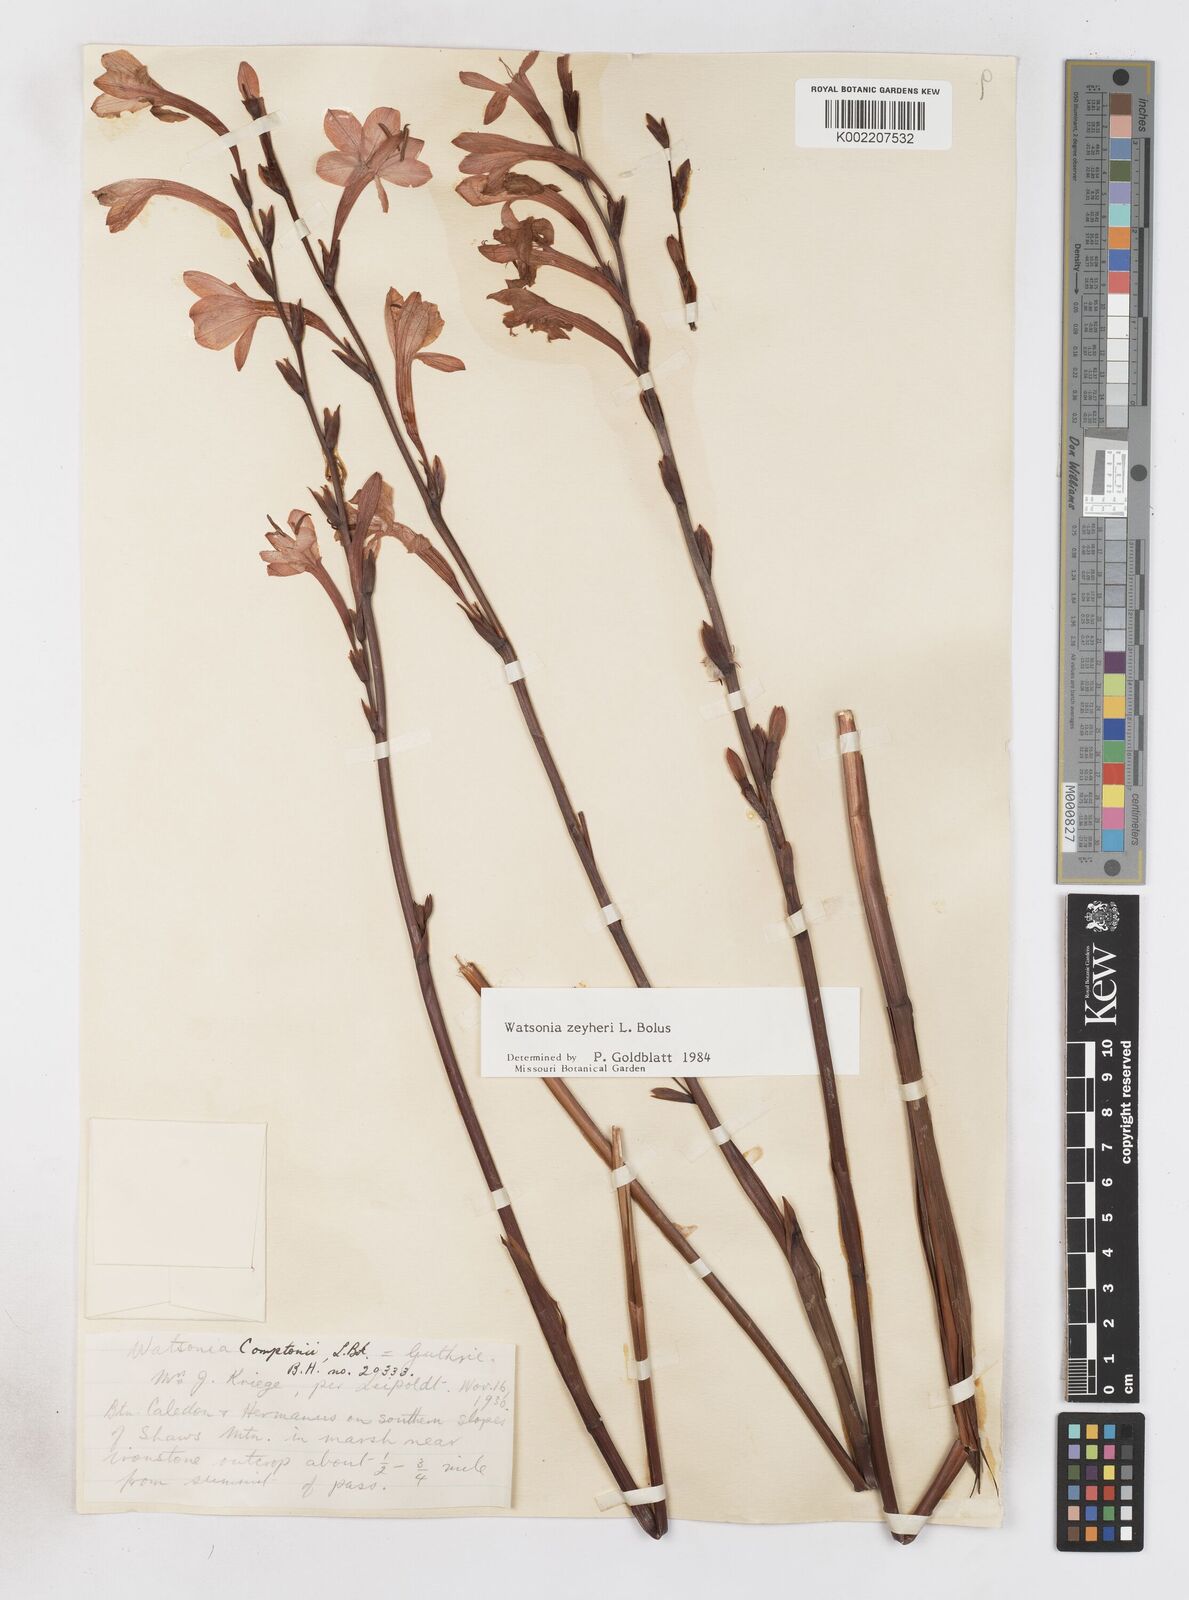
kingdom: Plantae
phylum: Tracheophyta
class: Liliopsida
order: Asparagales
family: Iridaceae
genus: Watsonia
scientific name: Watsonia zeyheri
